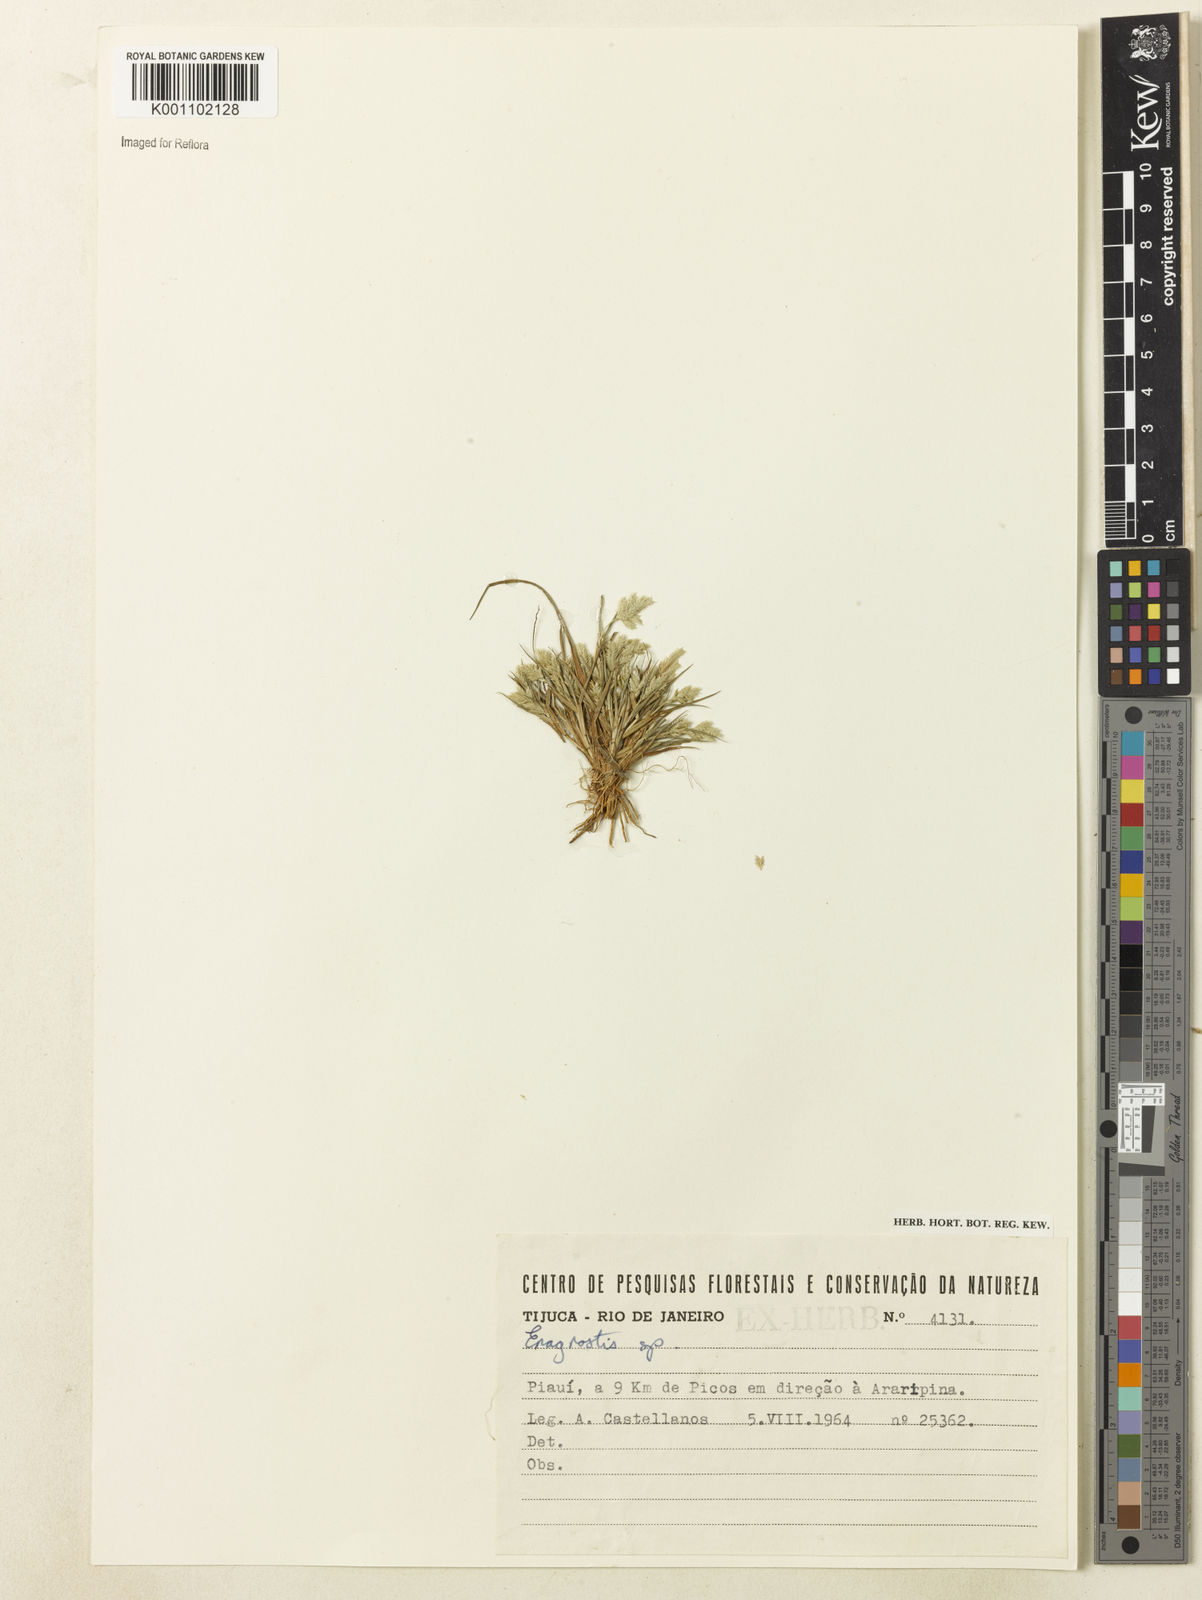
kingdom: Plantae
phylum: Tracheophyta
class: Liliopsida
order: Poales
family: Poaceae
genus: Eragrostis
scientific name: Eragrostis cilianensis
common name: Stinkgrass
